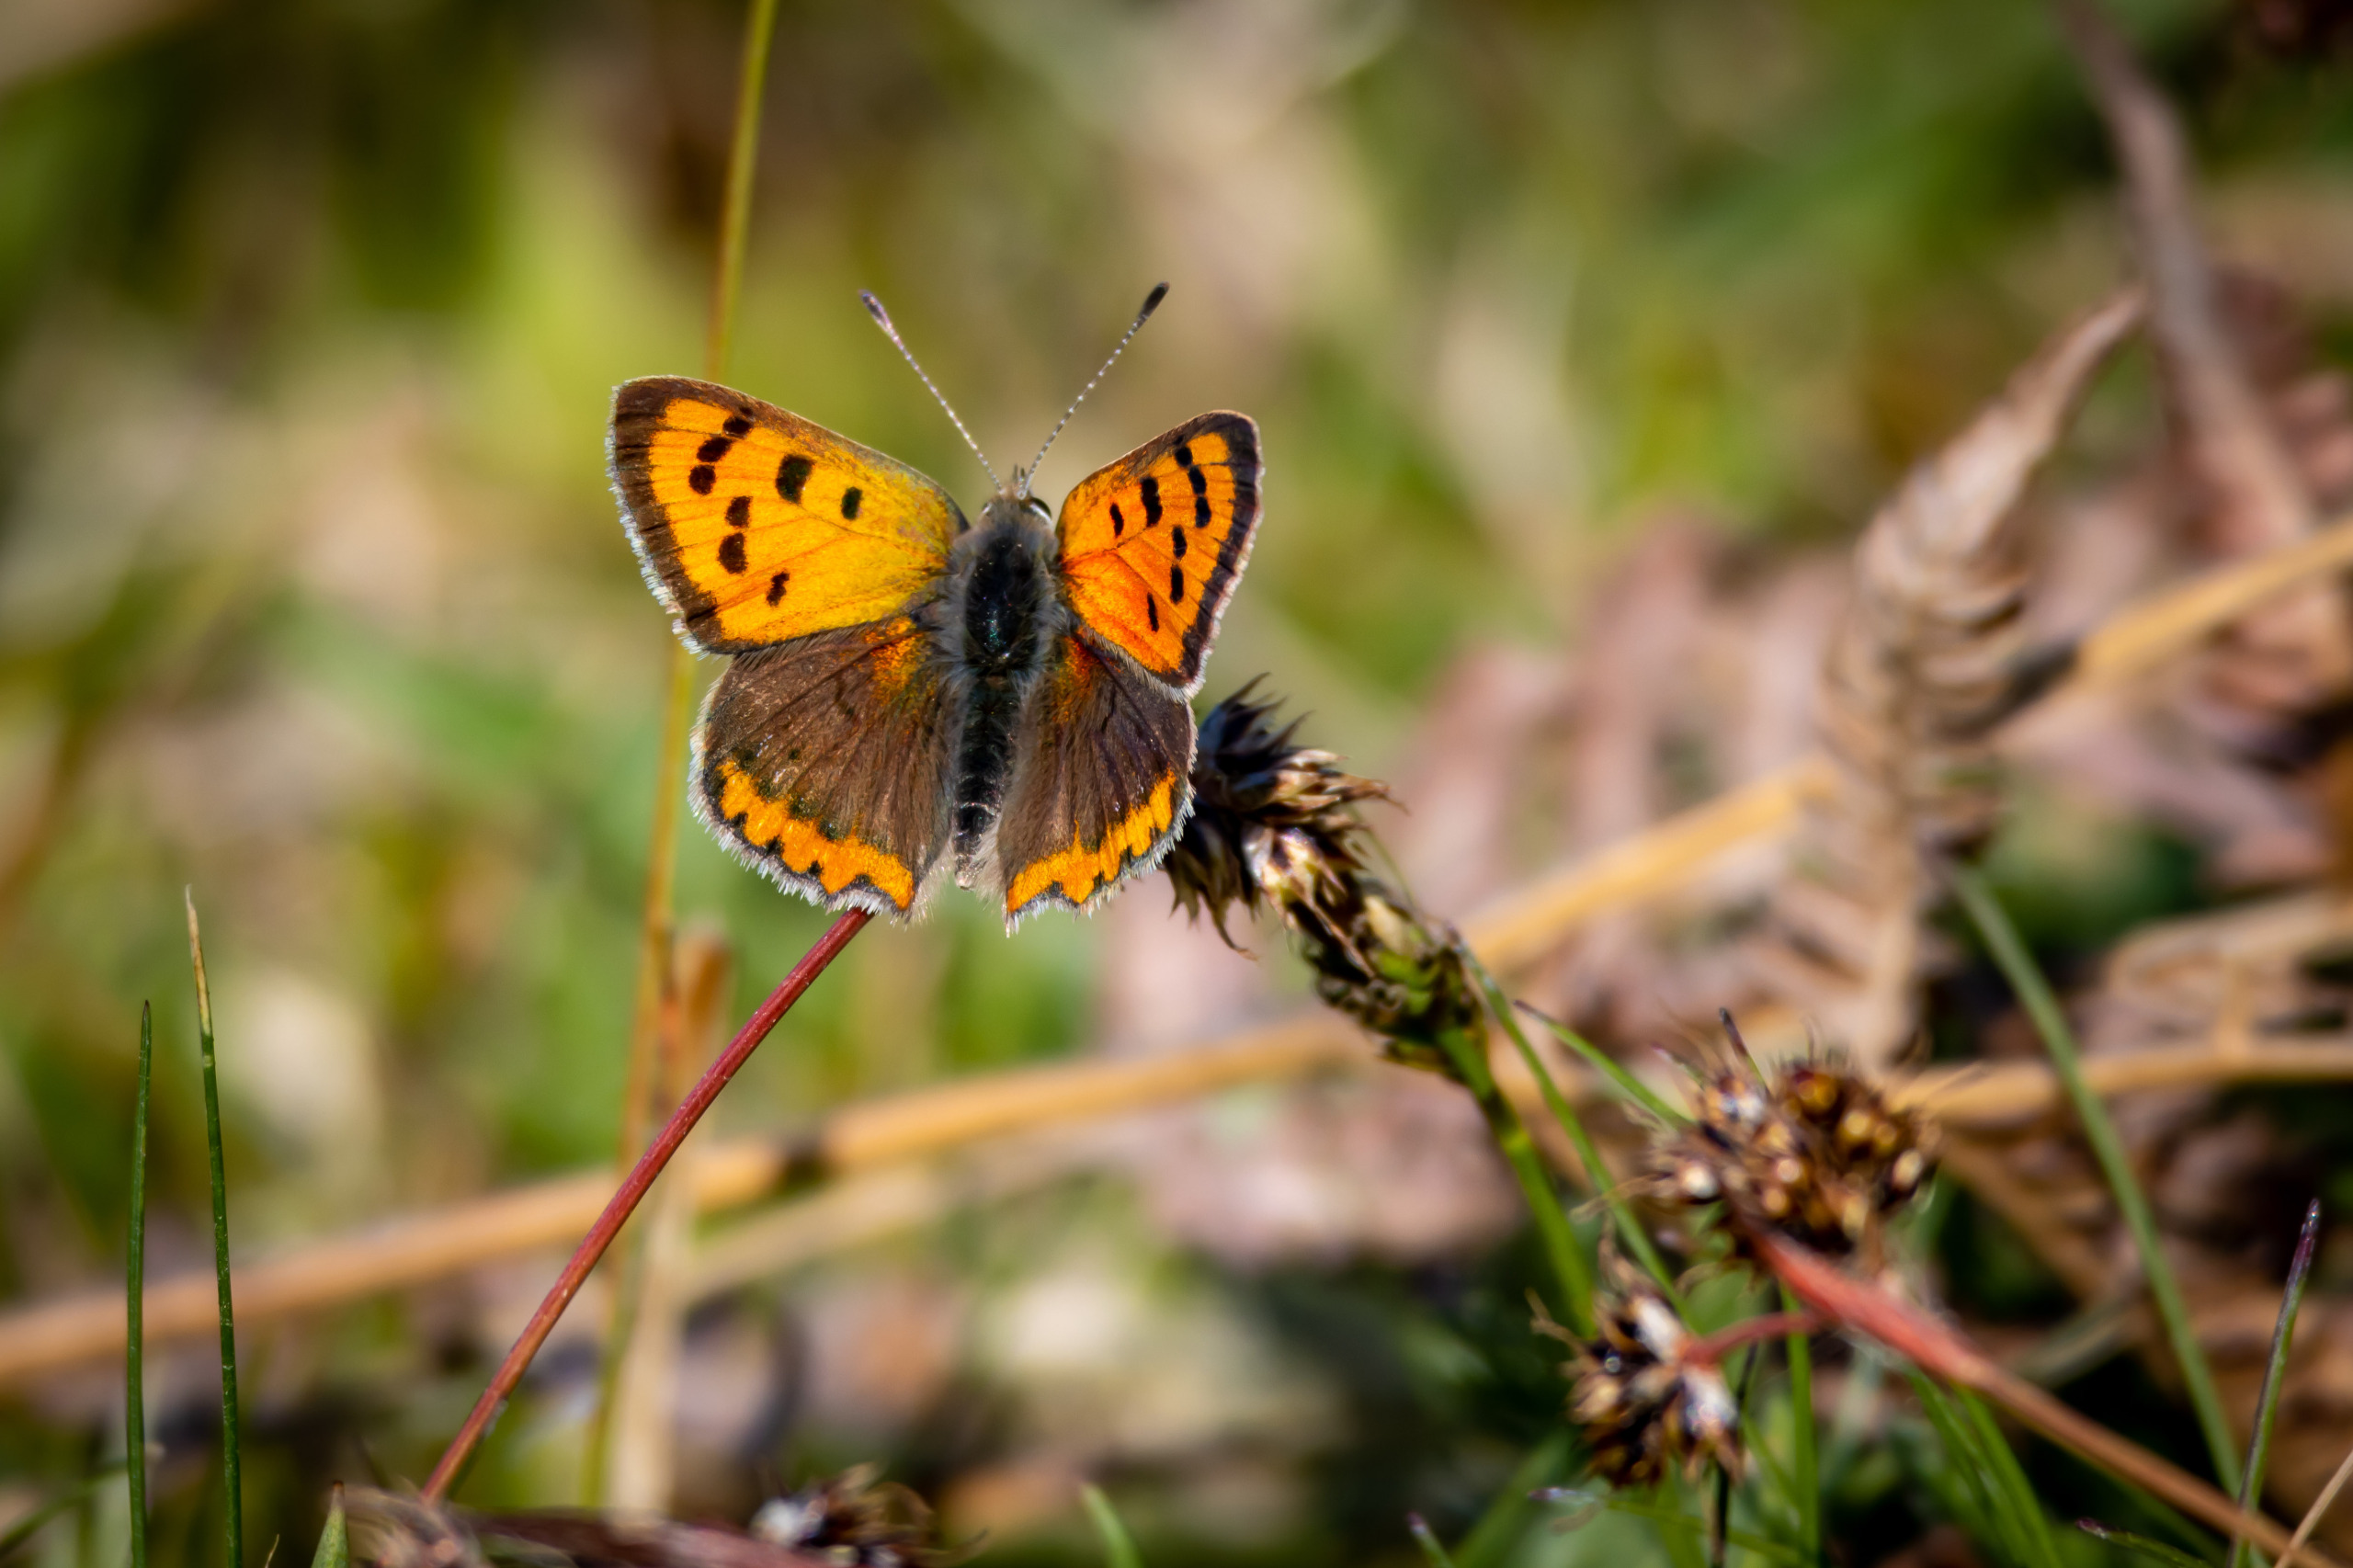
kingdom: Animalia
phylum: Arthropoda
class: Insecta
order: Lepidoptera
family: Lycaenidae
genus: Lycaena
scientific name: Lycaena phlaeas
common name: Lille ildfugl
